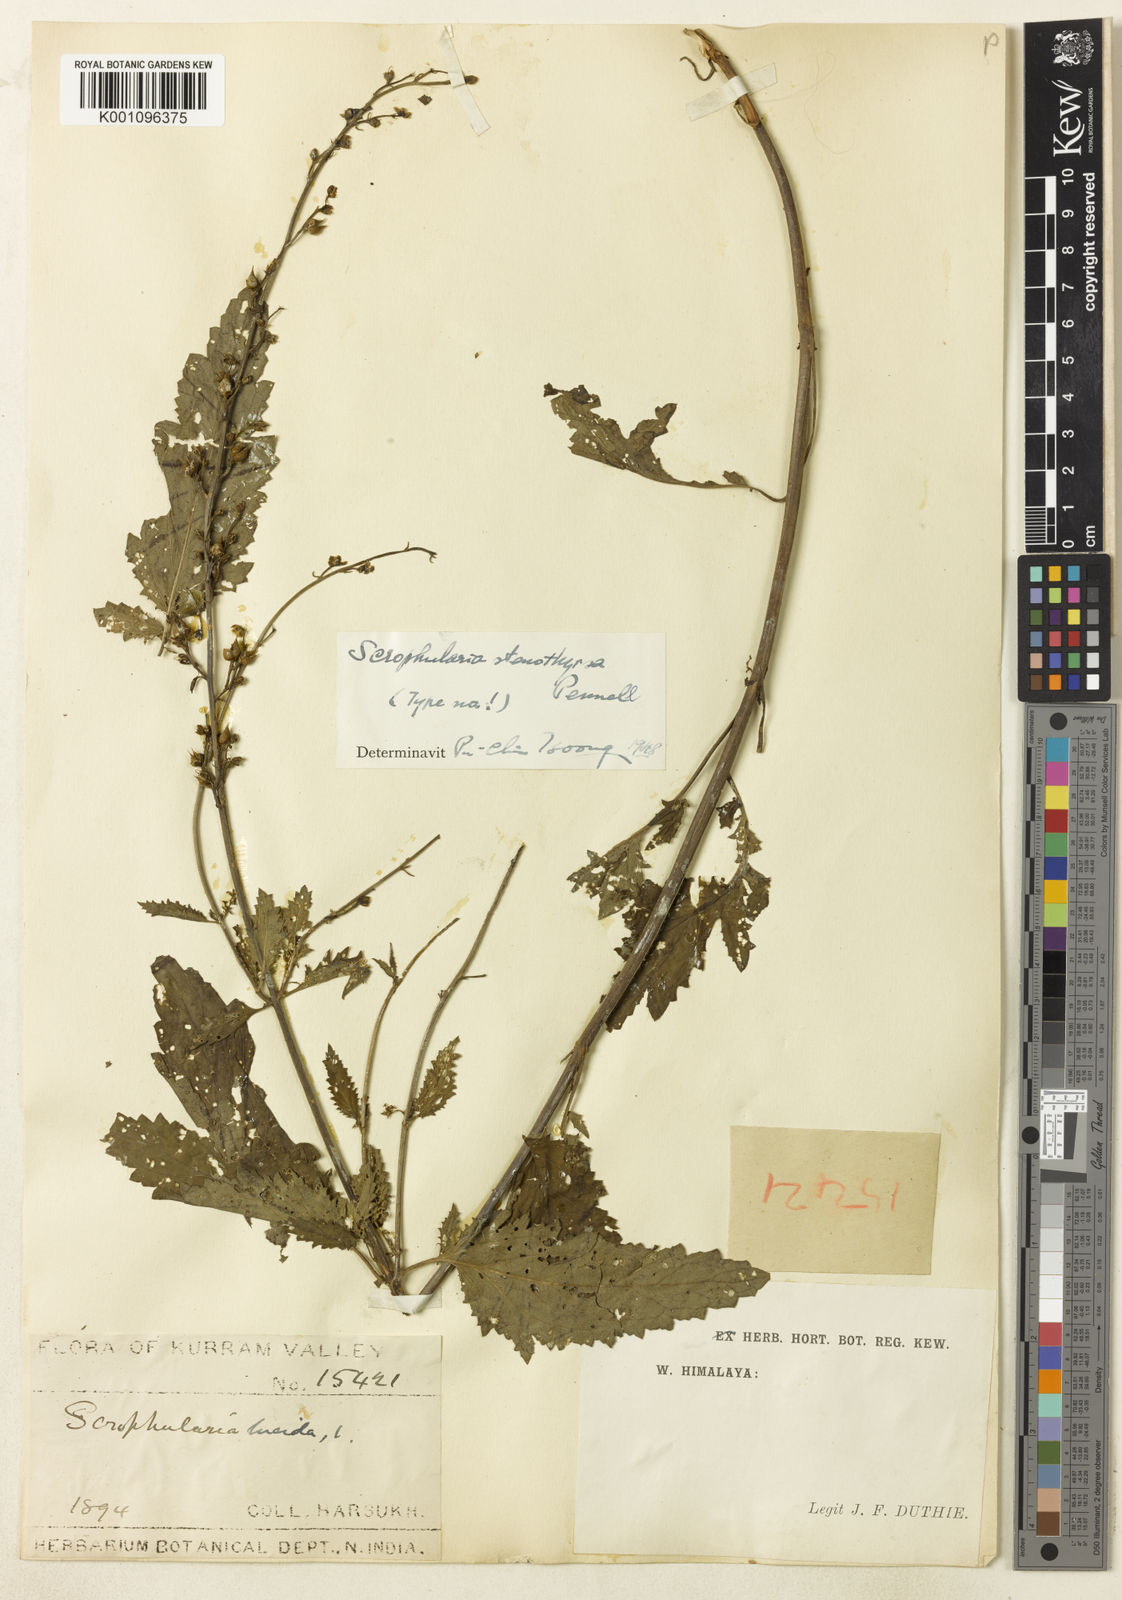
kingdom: Plantae
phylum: Tracheophyta
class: Magnoliopsida
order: Lamiales
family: Scrophulariaceae
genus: Scrophularia
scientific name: Scrophularia stenothyrsa
